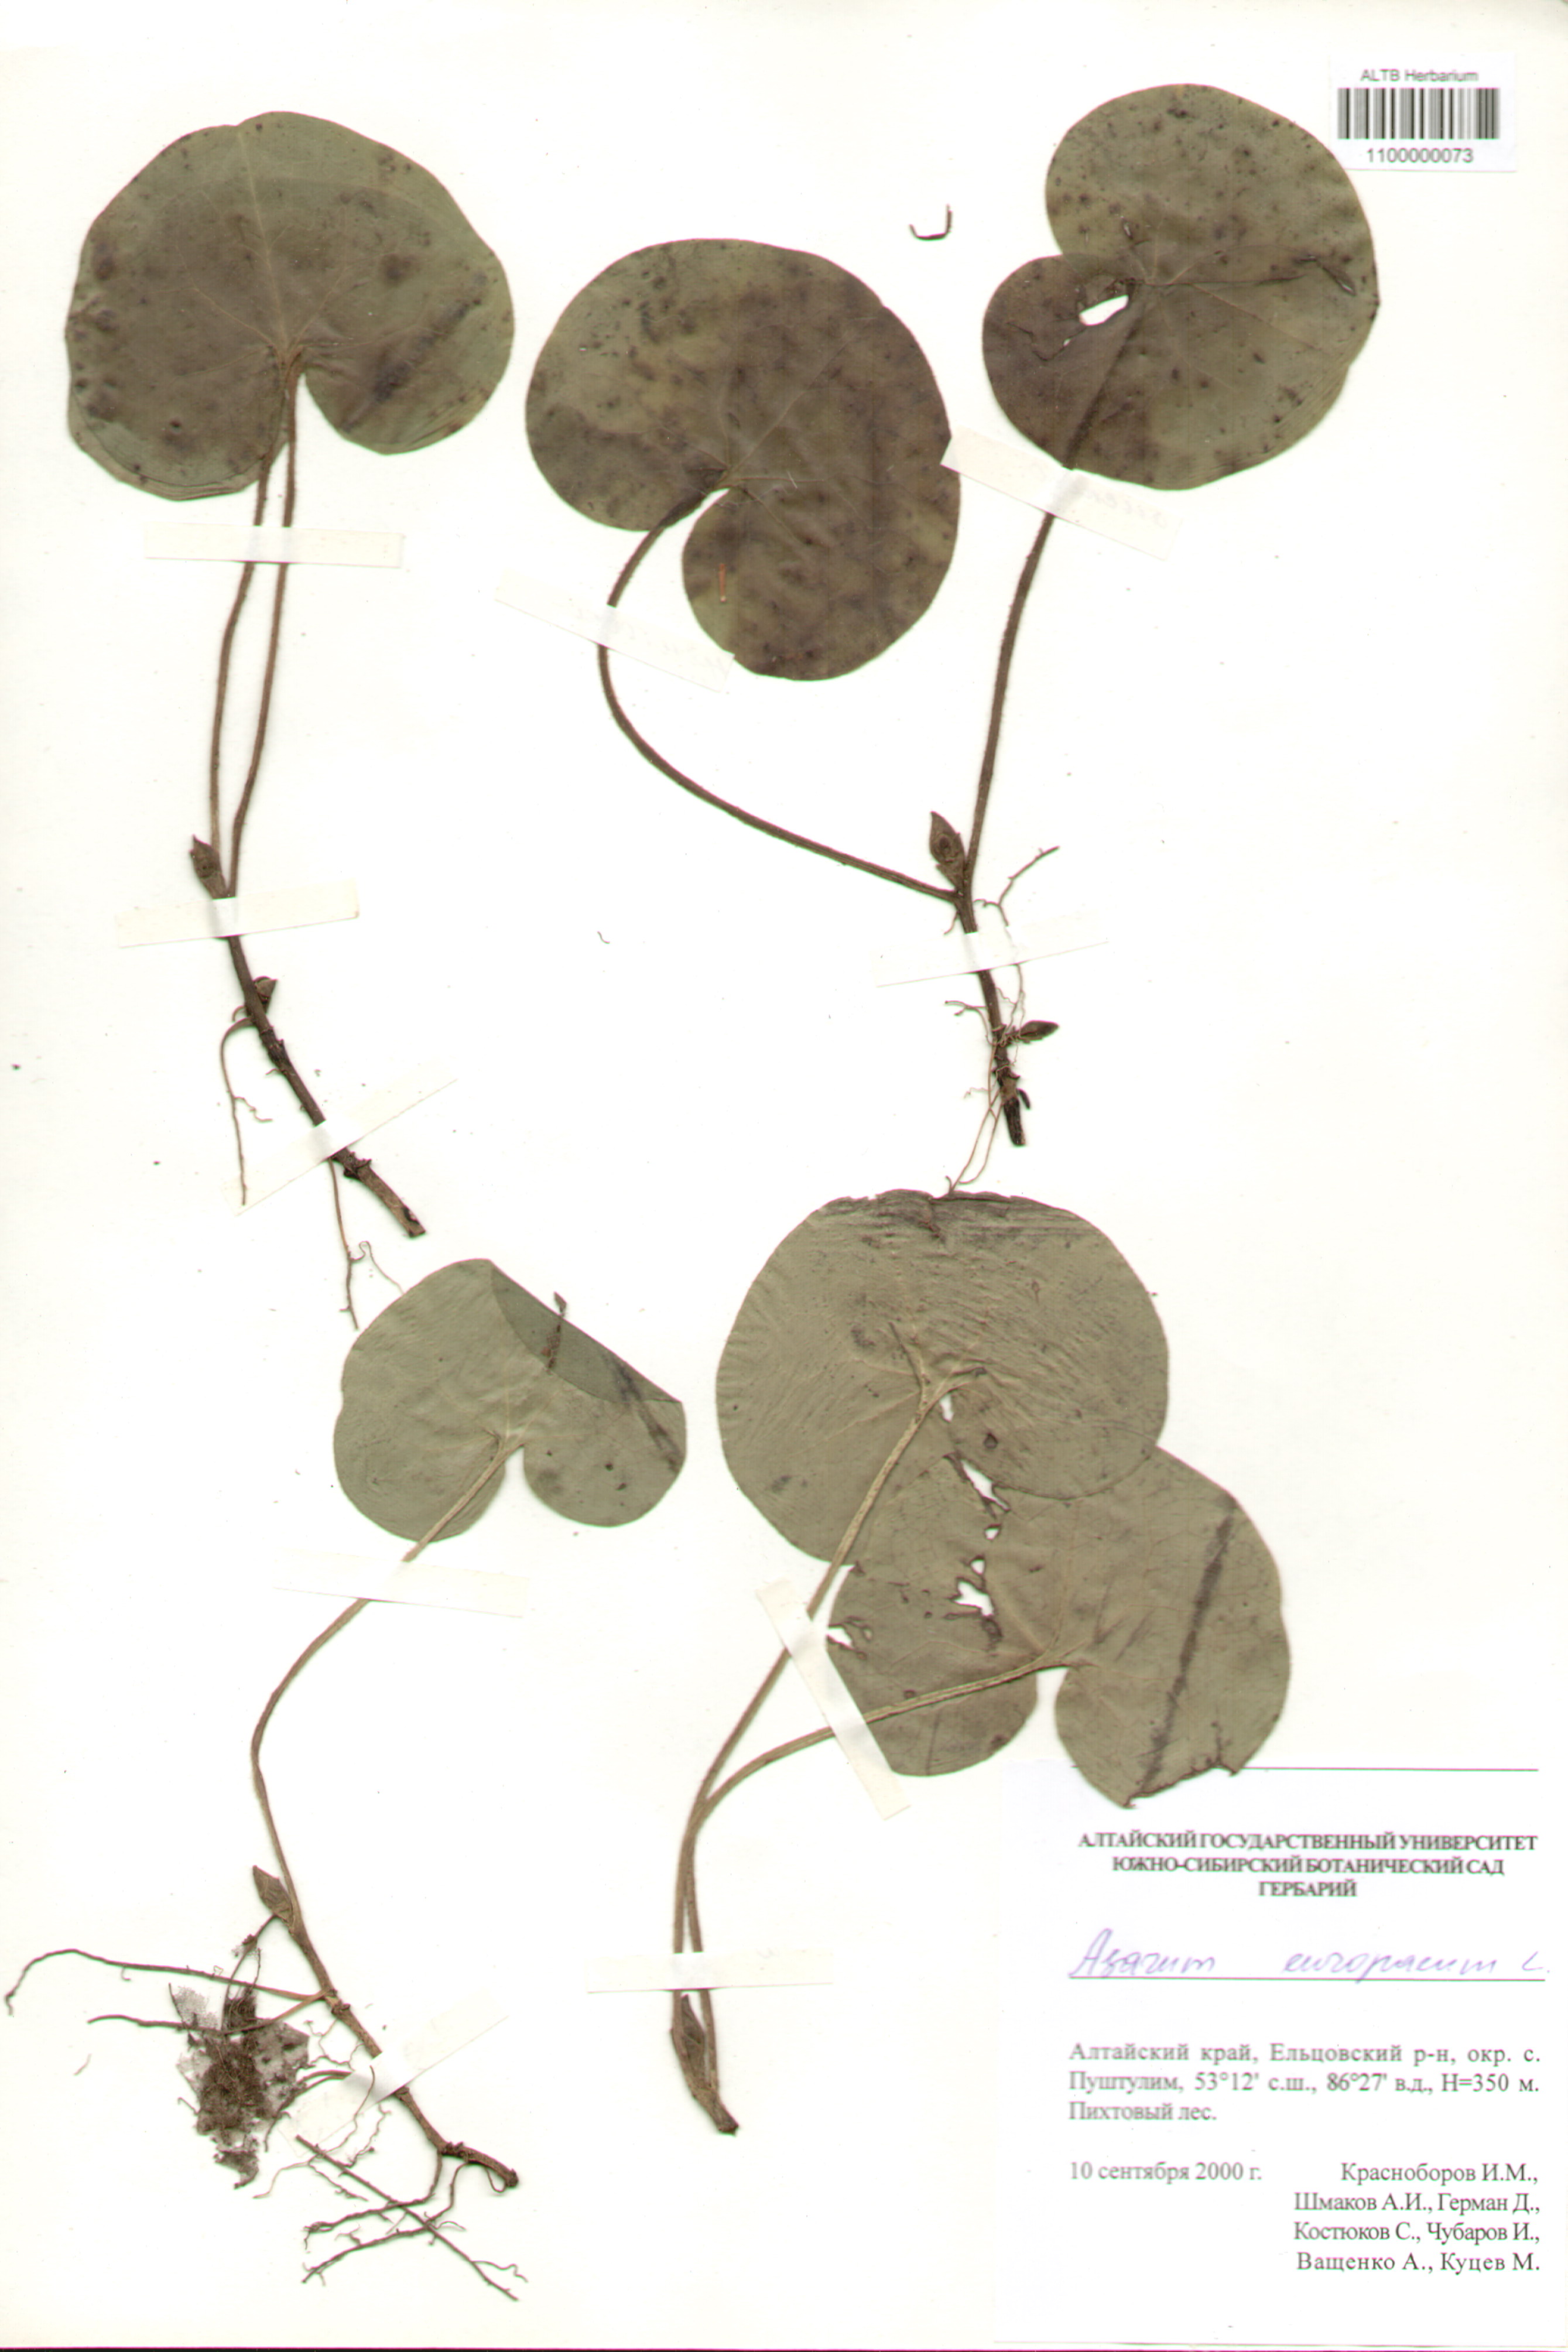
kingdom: Plantae
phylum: Tracheophyta
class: Magnoliopsida
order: Piperales
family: Aristolochiaceae
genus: Asarum
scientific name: Asarum europaeum
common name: Asarabacca
